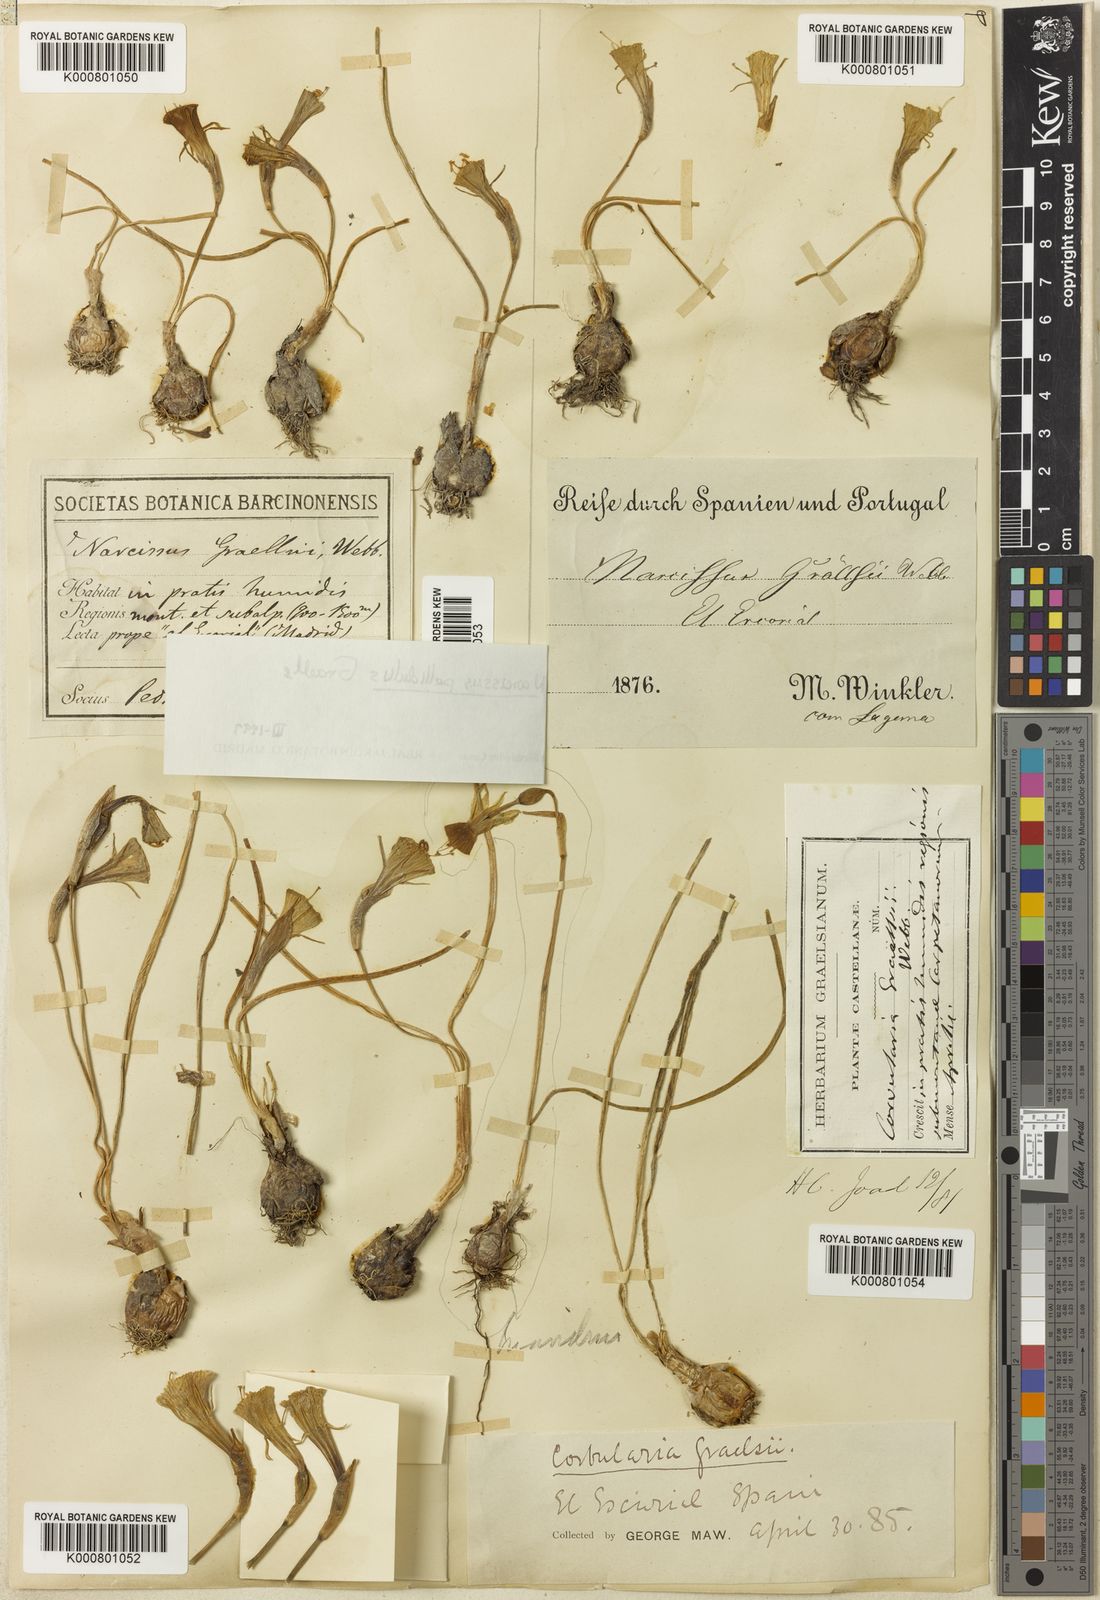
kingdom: Plantae
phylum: Tracheophyta
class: Liliopsida
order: Asparagales
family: Amaryllidaceae
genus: Narcissus
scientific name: Narcissus bulbocodium
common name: Hoop-petticoat daffodil
